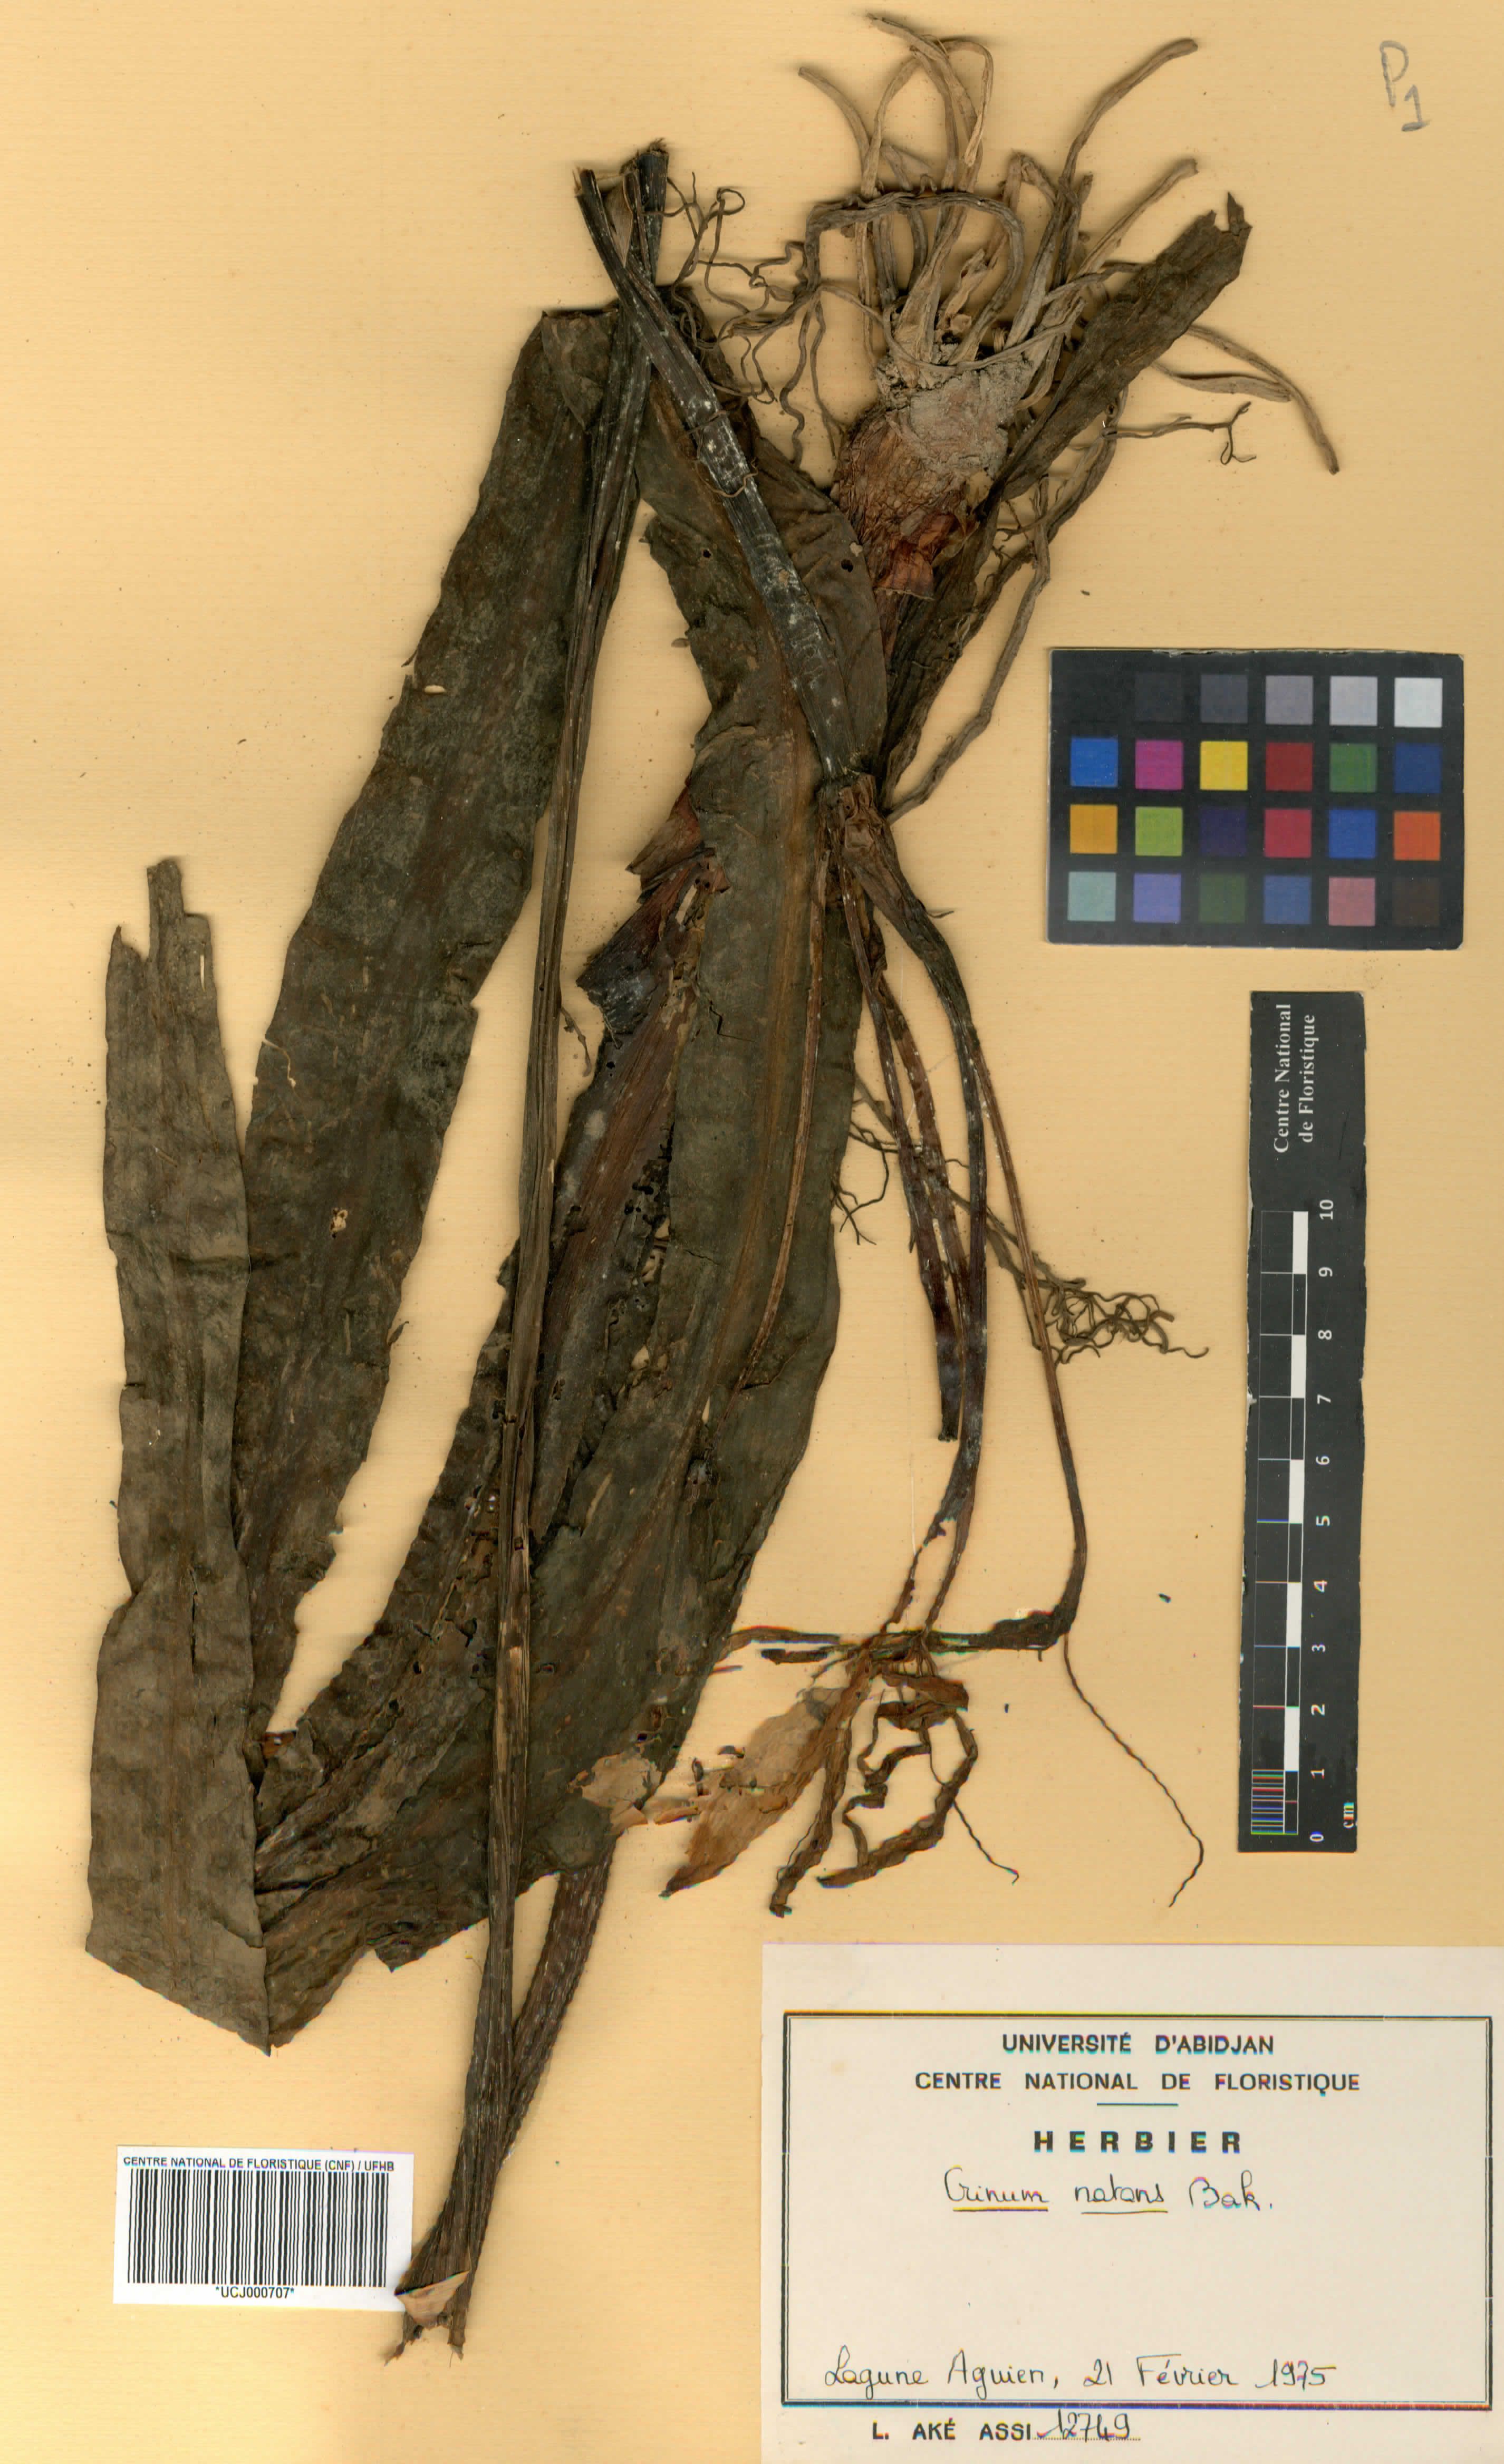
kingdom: Plantae
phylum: Tracheophyta
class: Liliopsida
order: Asparagales
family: Amaryllidaceae
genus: Crinum
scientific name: Crinum natans
